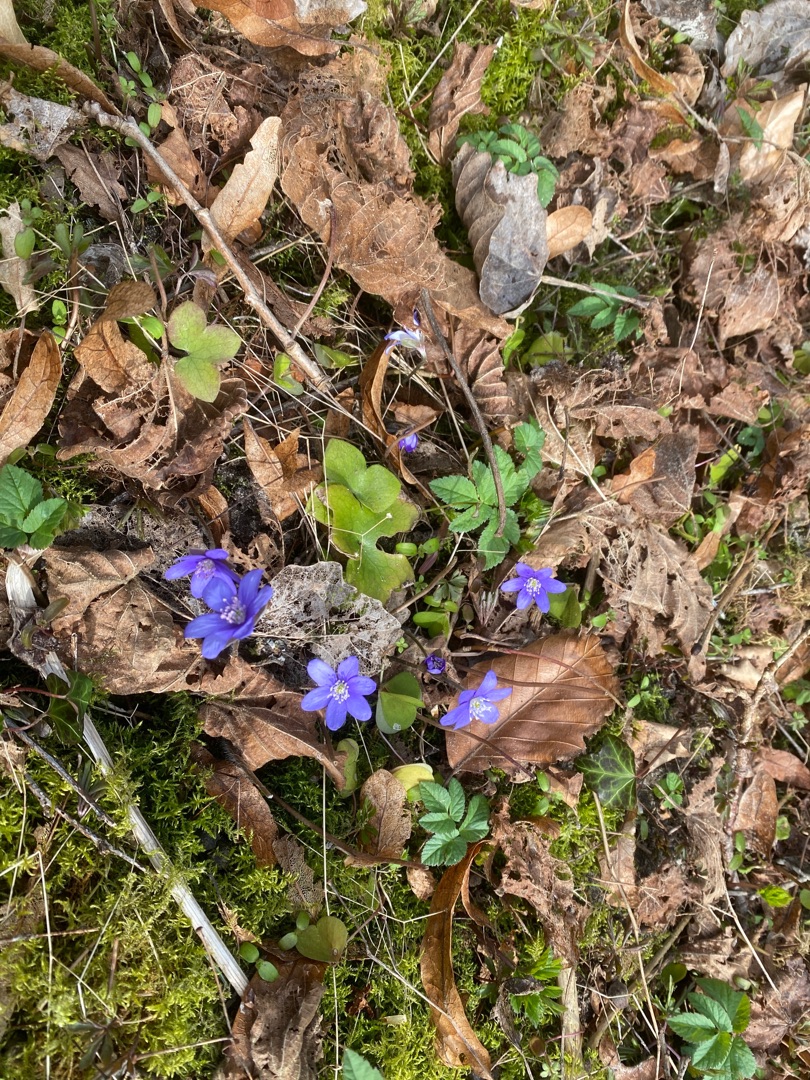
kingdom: Plantae
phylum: Tracheophyta
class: Magnoliopsida
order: Ranunculales
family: Ranunculaceae
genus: Hepatica
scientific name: Hepatica nobilis
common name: Blå anemone
